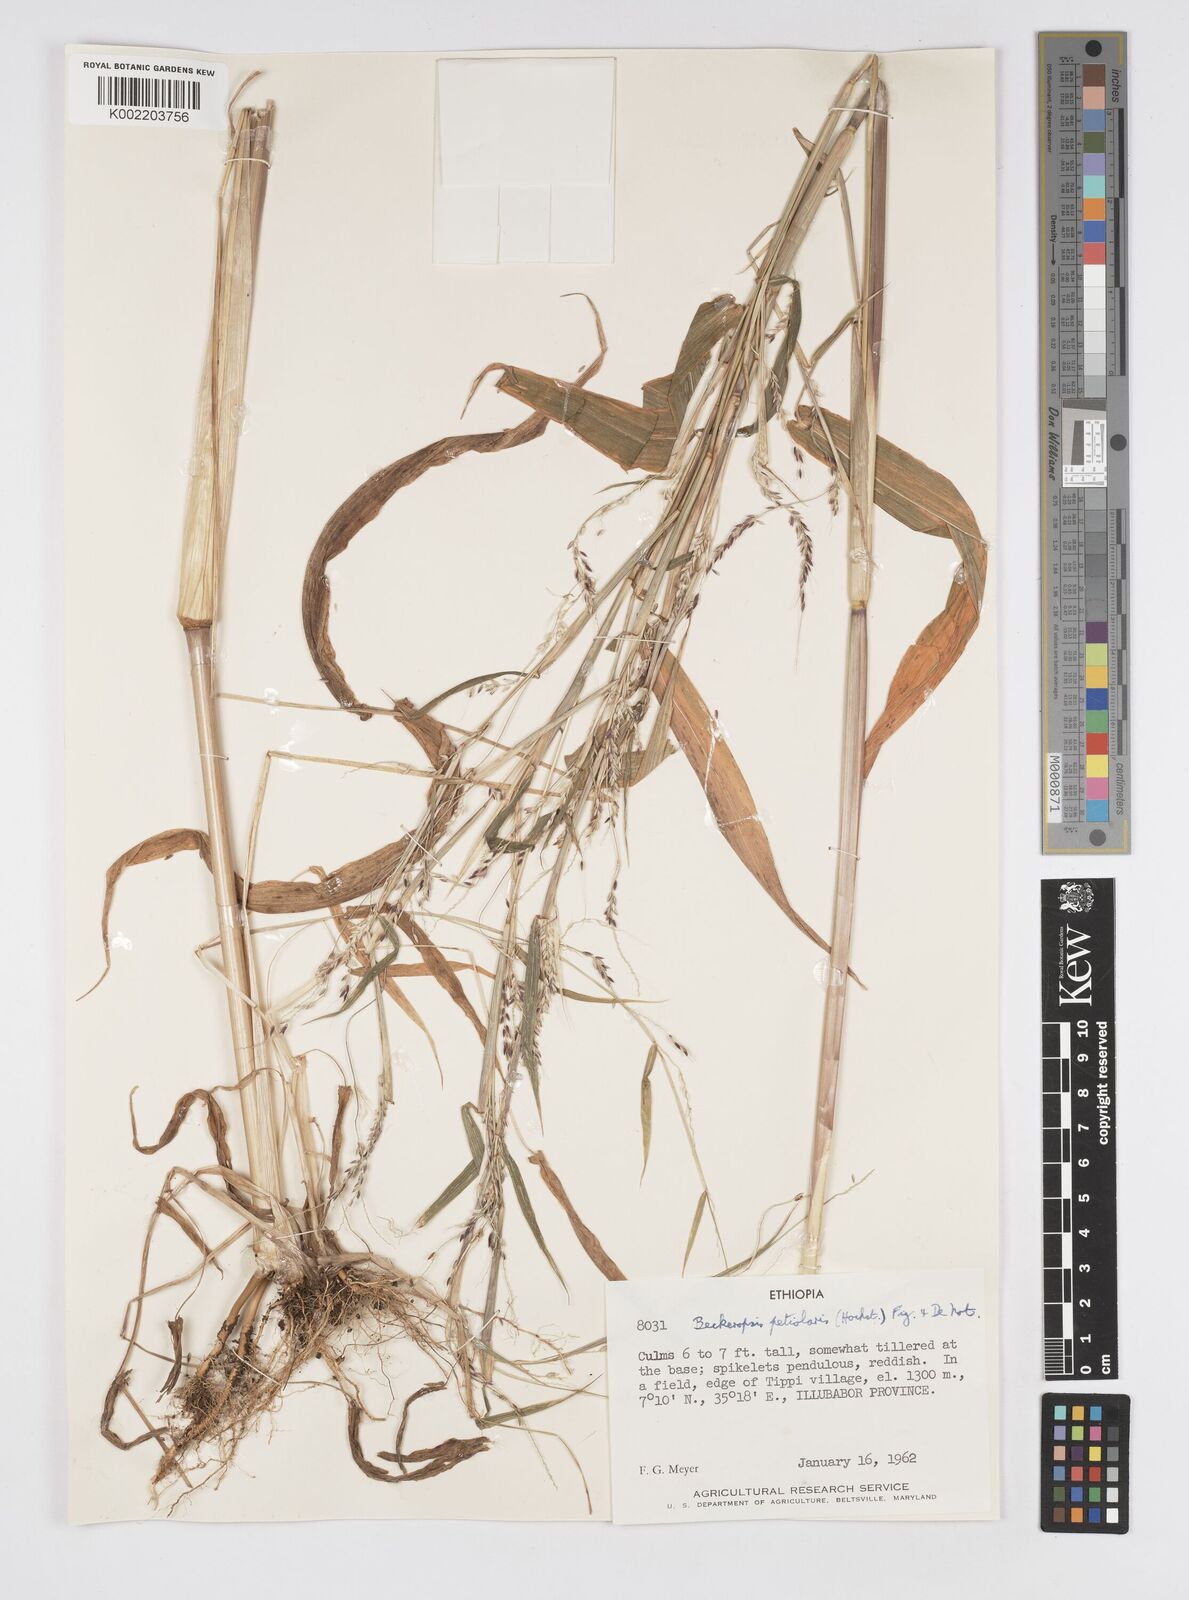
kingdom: Plantae
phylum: Tracheophyta
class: Liliopsida
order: Poales
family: Poaceae
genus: Cenchrus
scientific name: Cenchrus petiolaris
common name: Grass
